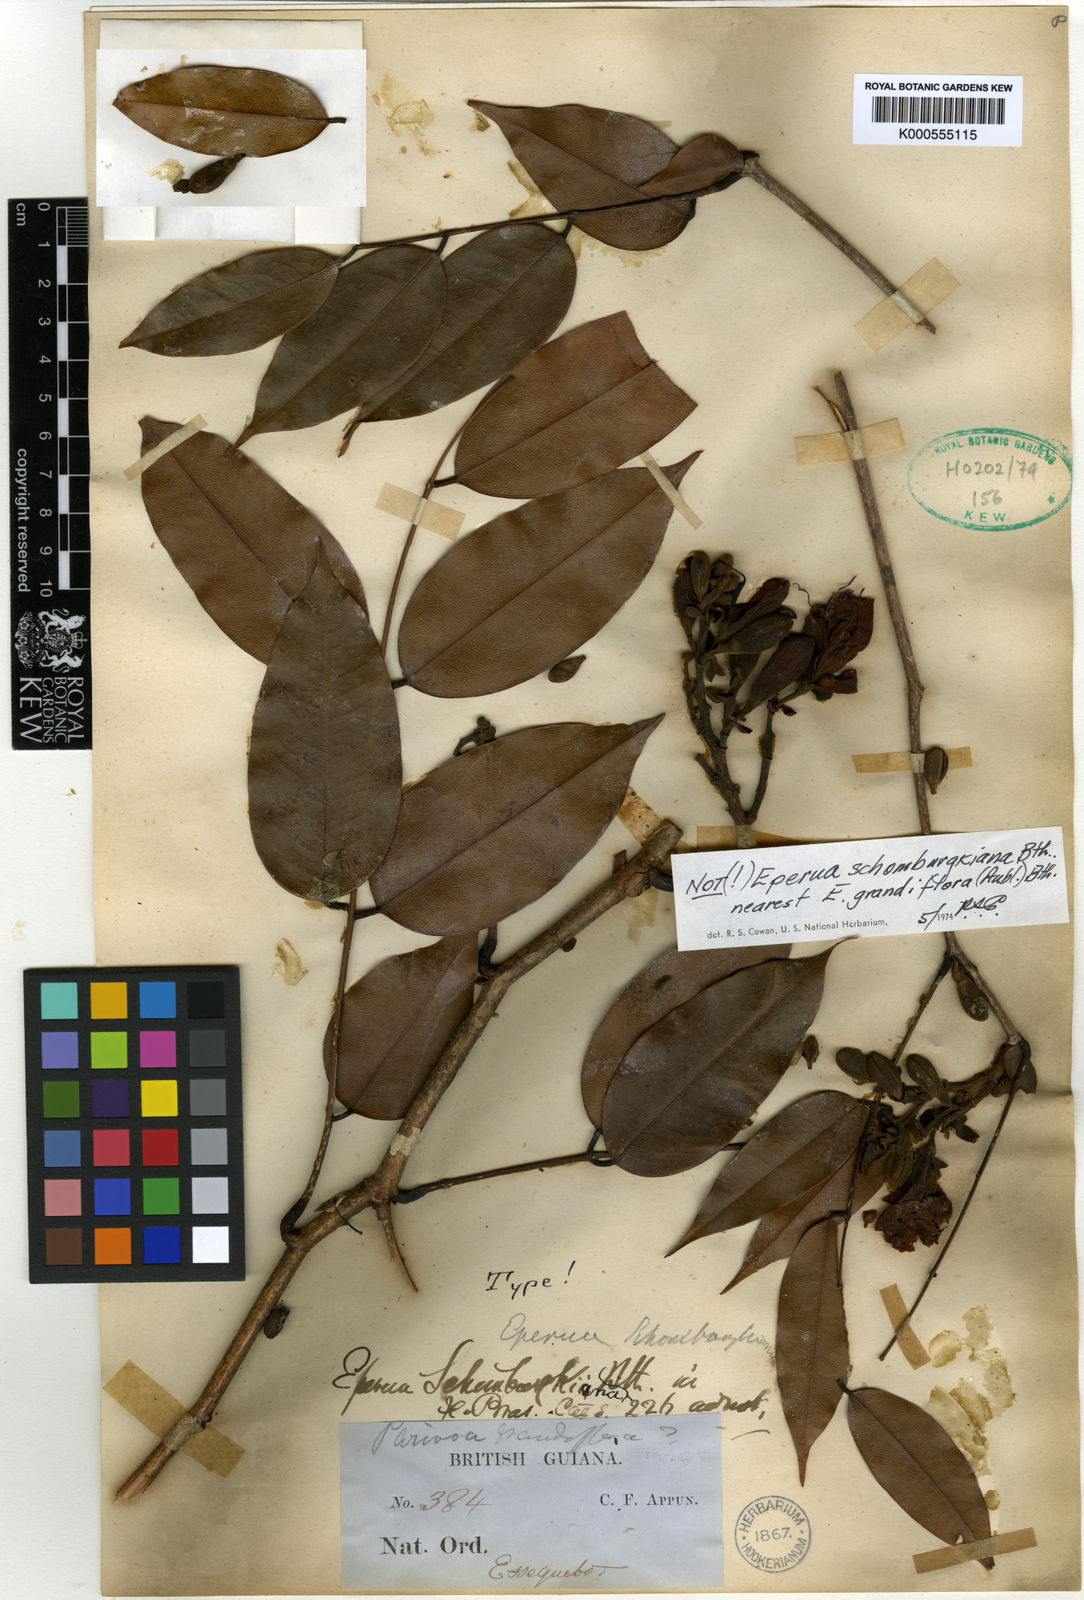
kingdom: Plantae
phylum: Tracheophyta
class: Magnoliopsida
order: Fabales
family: Fabaceae
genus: Eperua
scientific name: Eperua schomburgkiana
